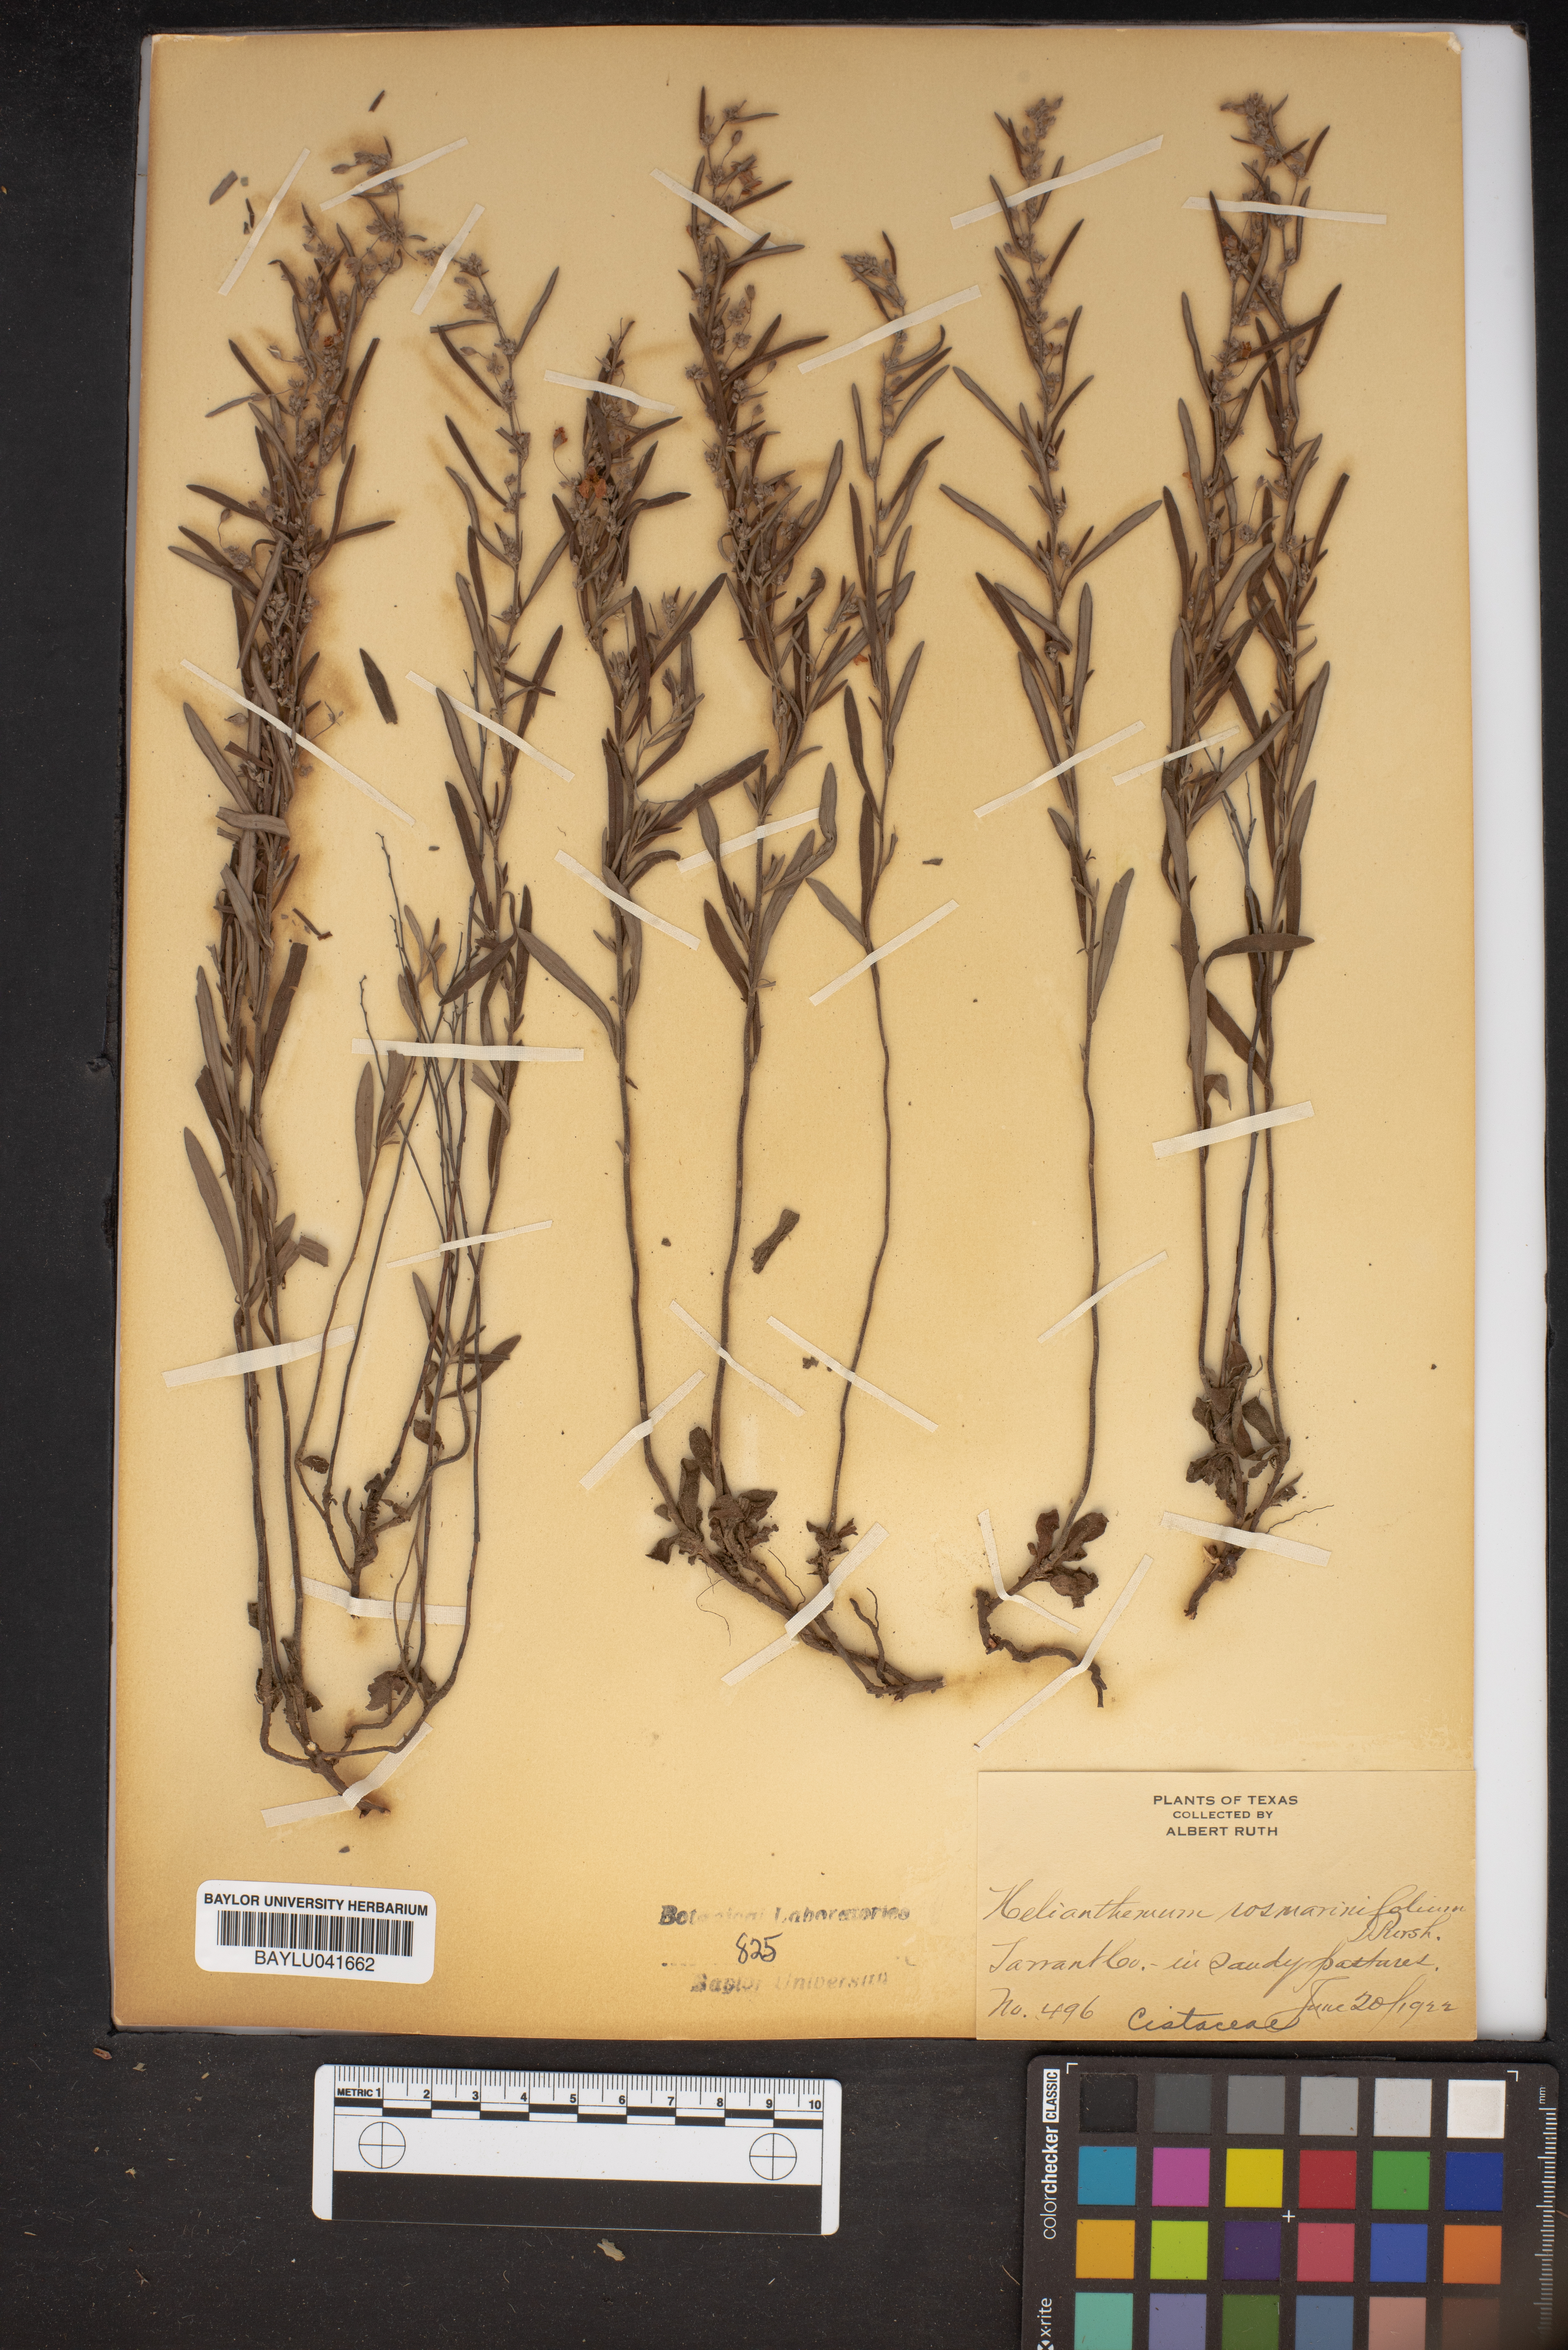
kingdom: Plantae
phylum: Tracheophyta
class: Magnoliopsida
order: Malvales
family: Cistaceae
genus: Crocanthemum
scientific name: Crocanthemum rosmarinifolium
